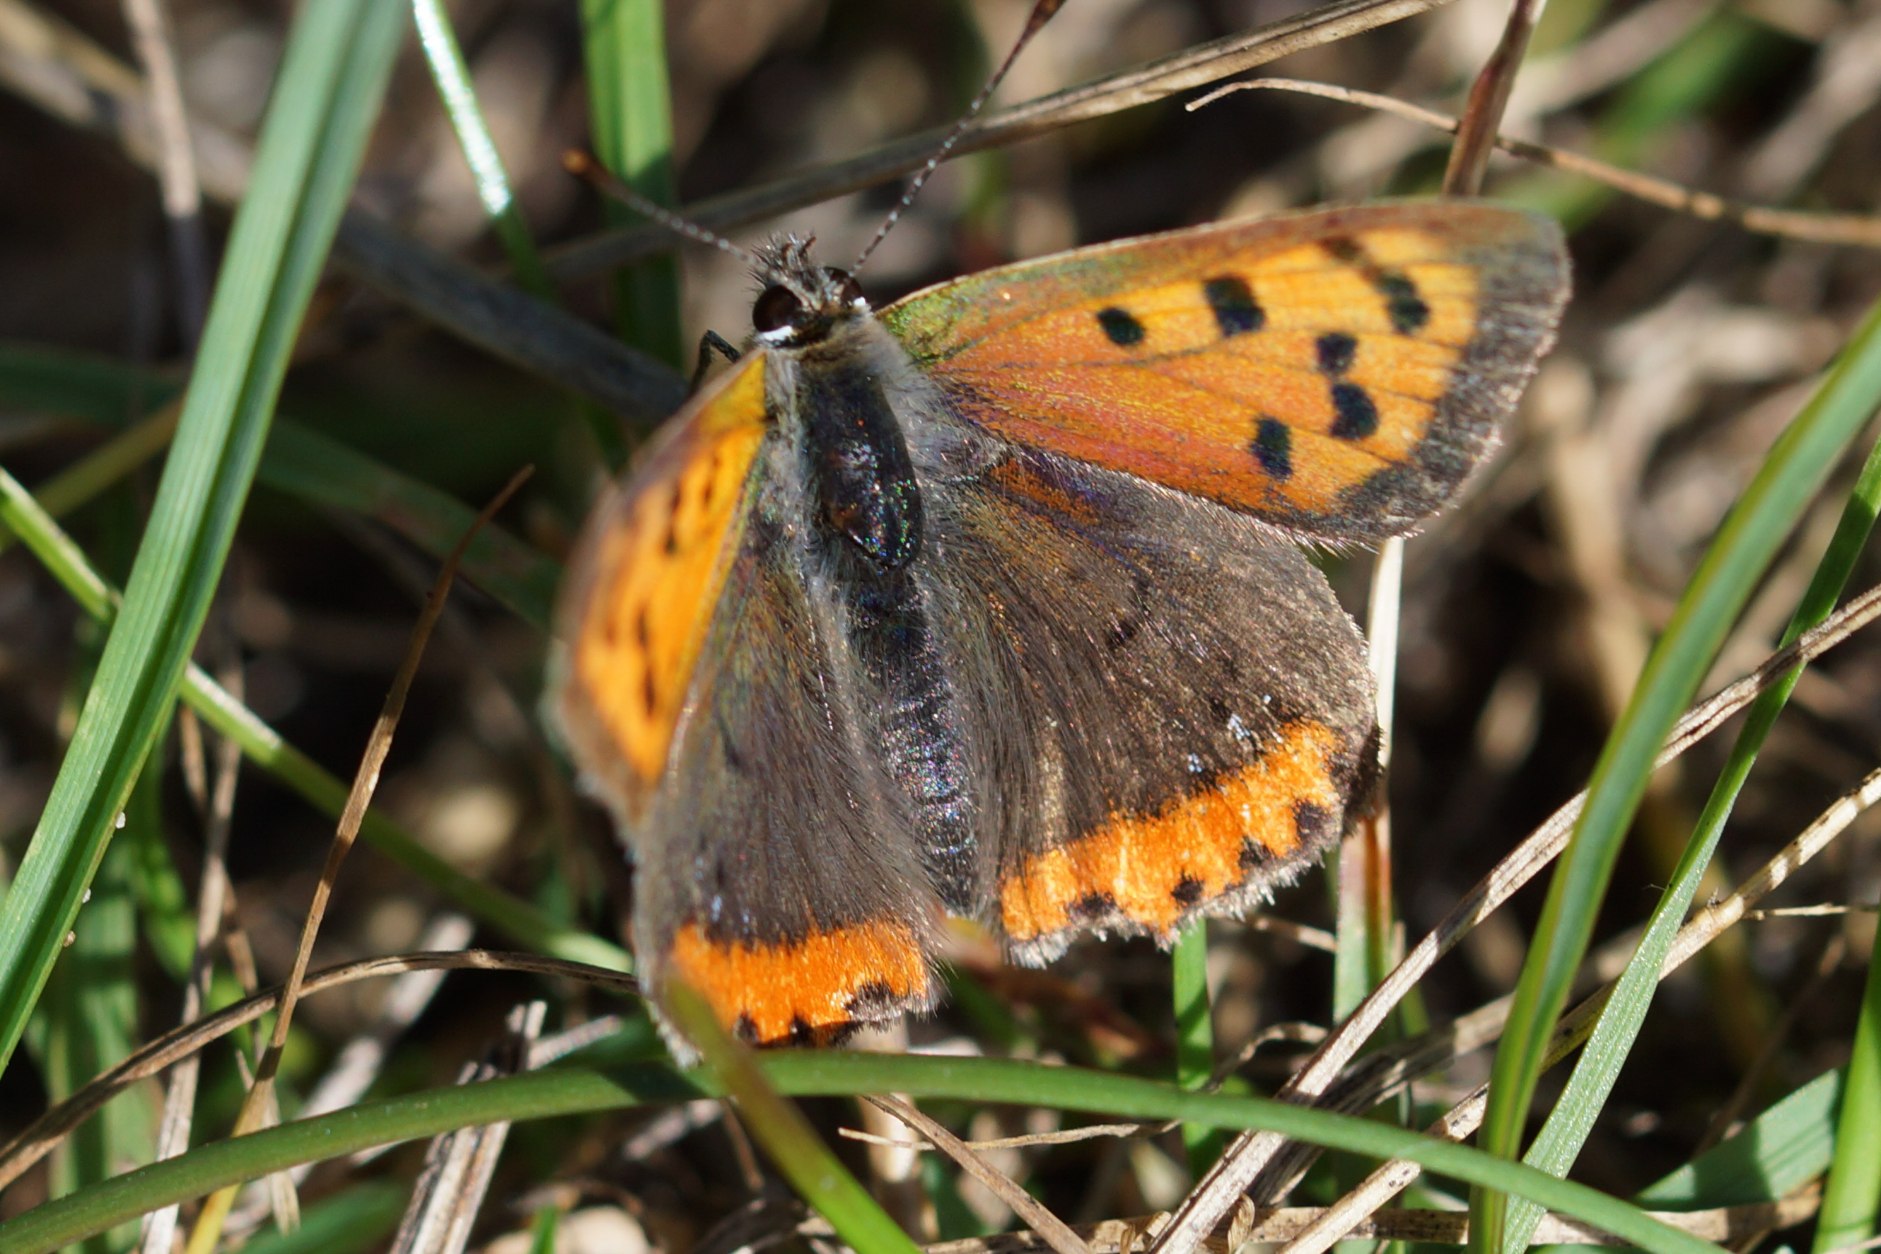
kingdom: Animalia
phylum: Arthropoda
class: Insecta
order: Lepidoptera
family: Lycaenidae
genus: Lycaena
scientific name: Lycaena phlaeas
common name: Lille ildfugl
